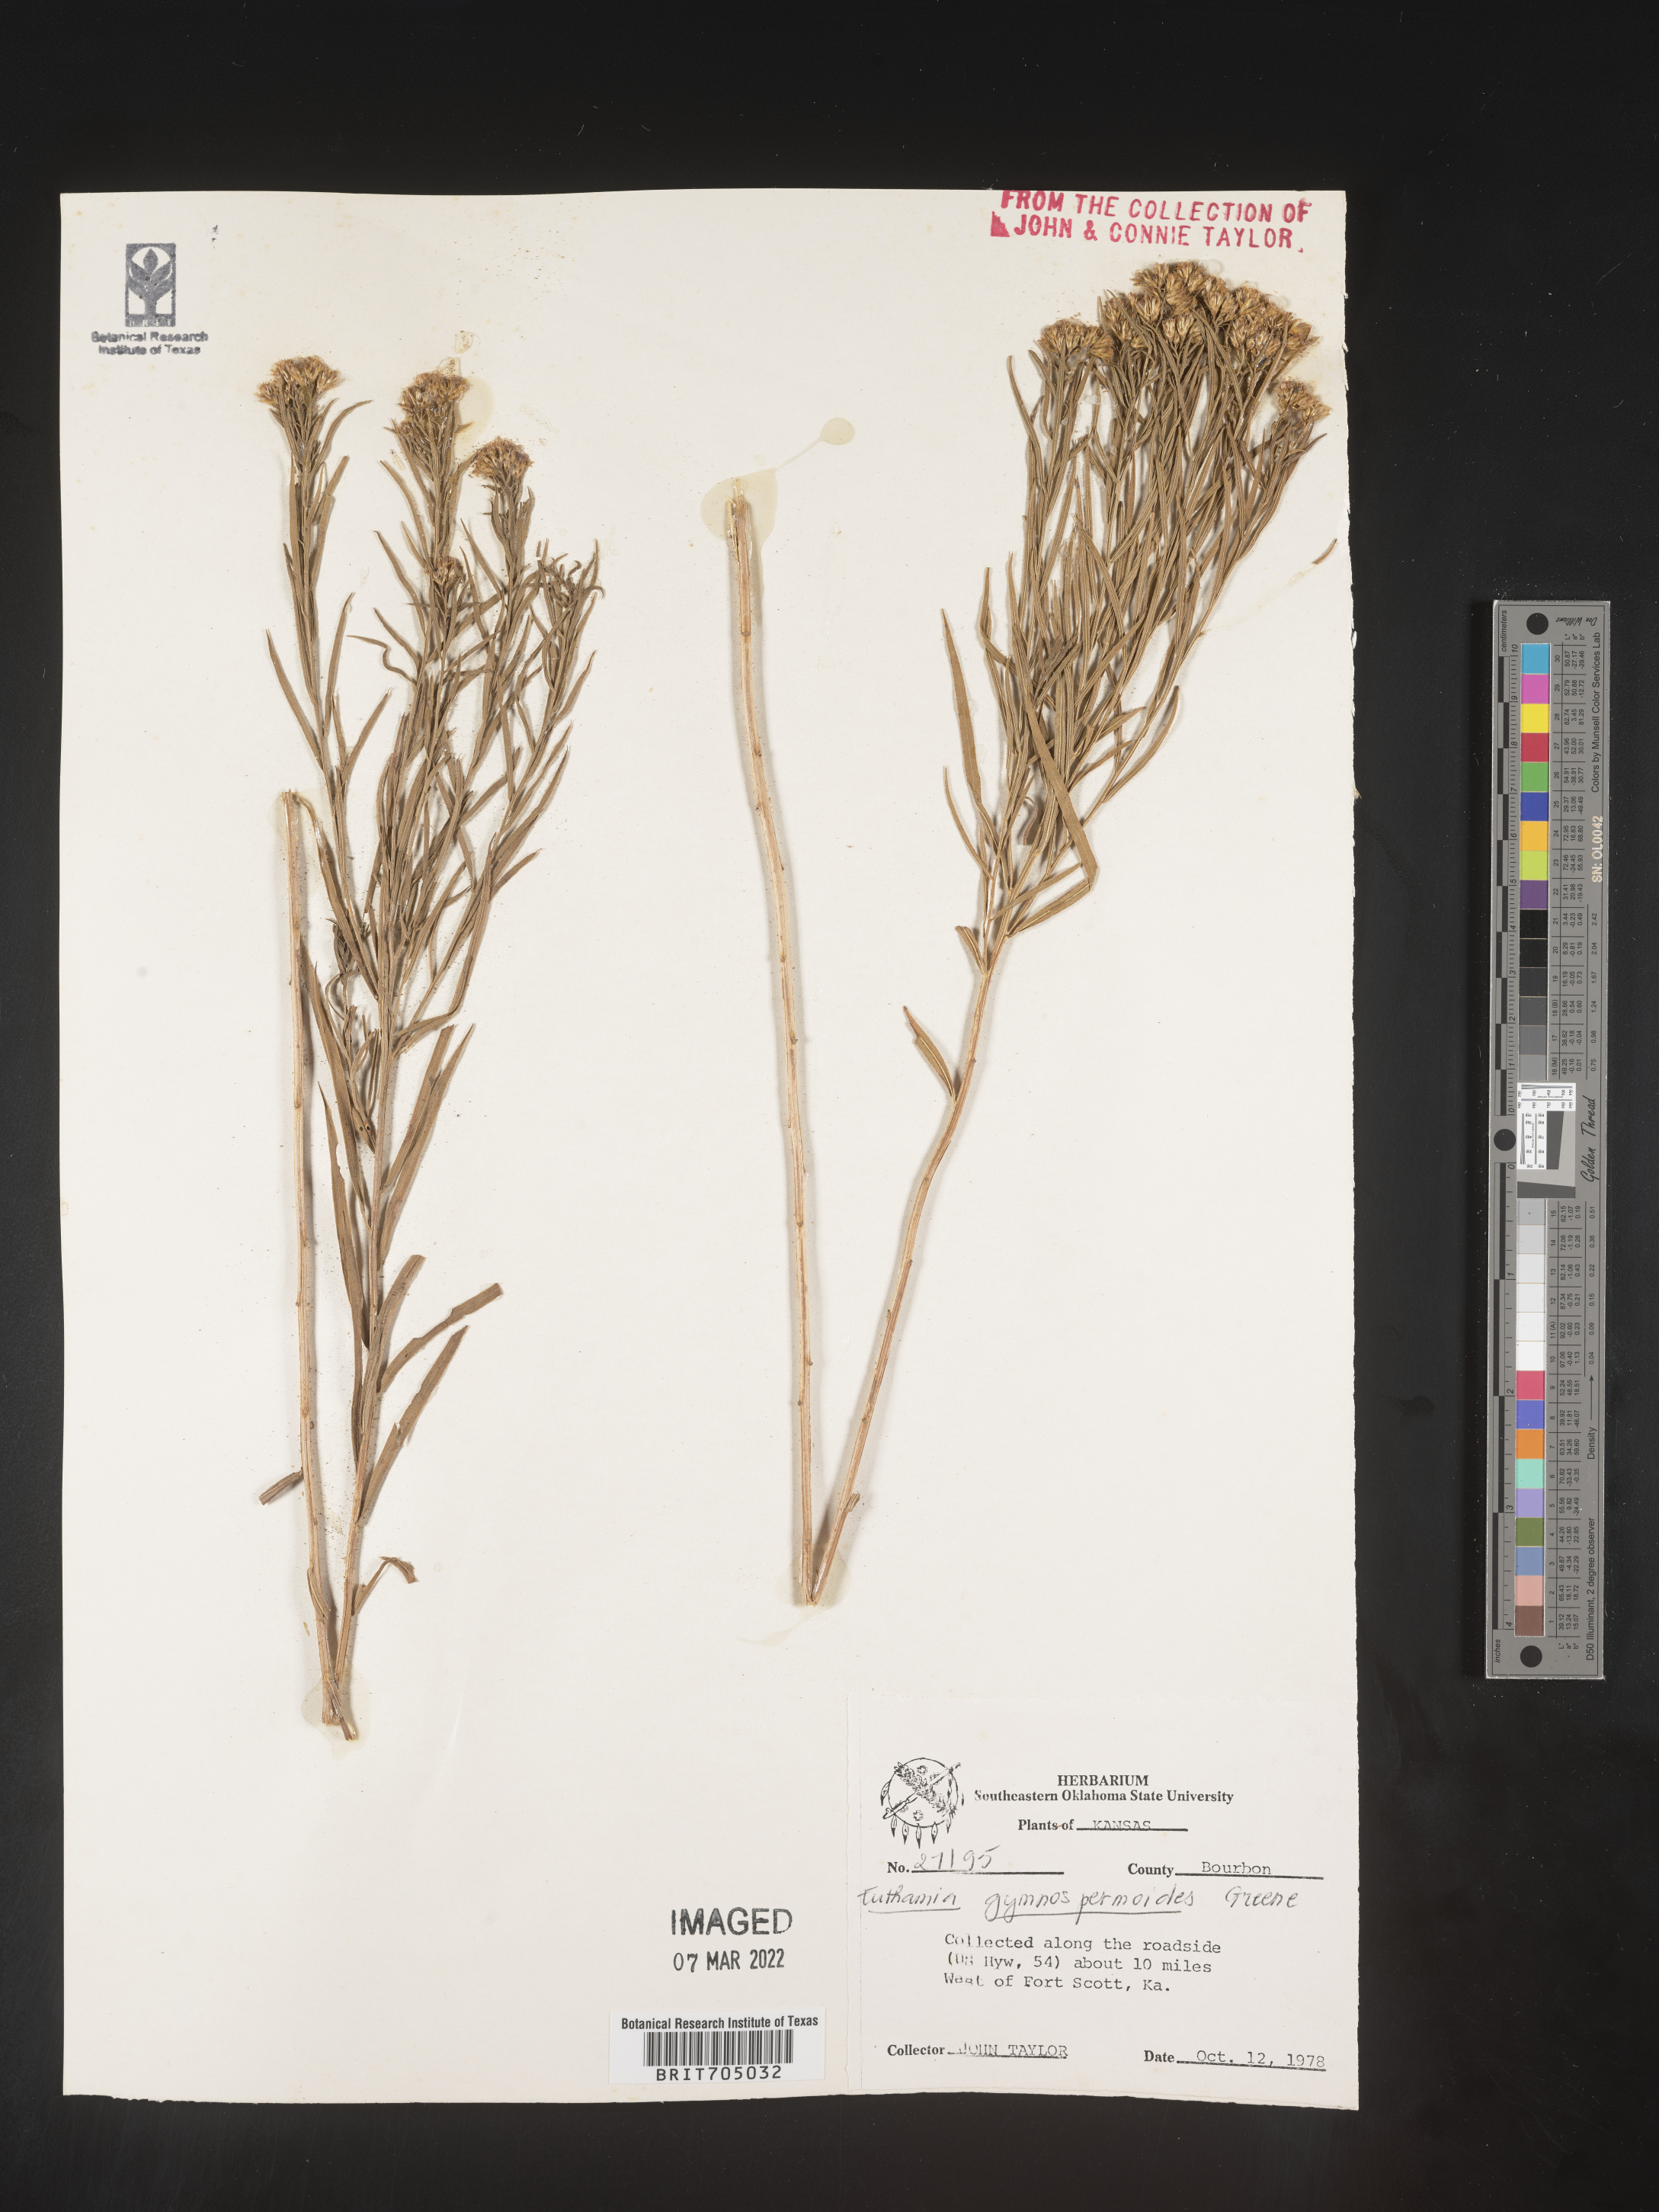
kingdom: Plantae
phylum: Tracheophyta
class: Magnoliopsida
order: Asterales
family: Asteraceae
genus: Euthamia
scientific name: Euthamia gymnospermoides
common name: Great plains goldentop
